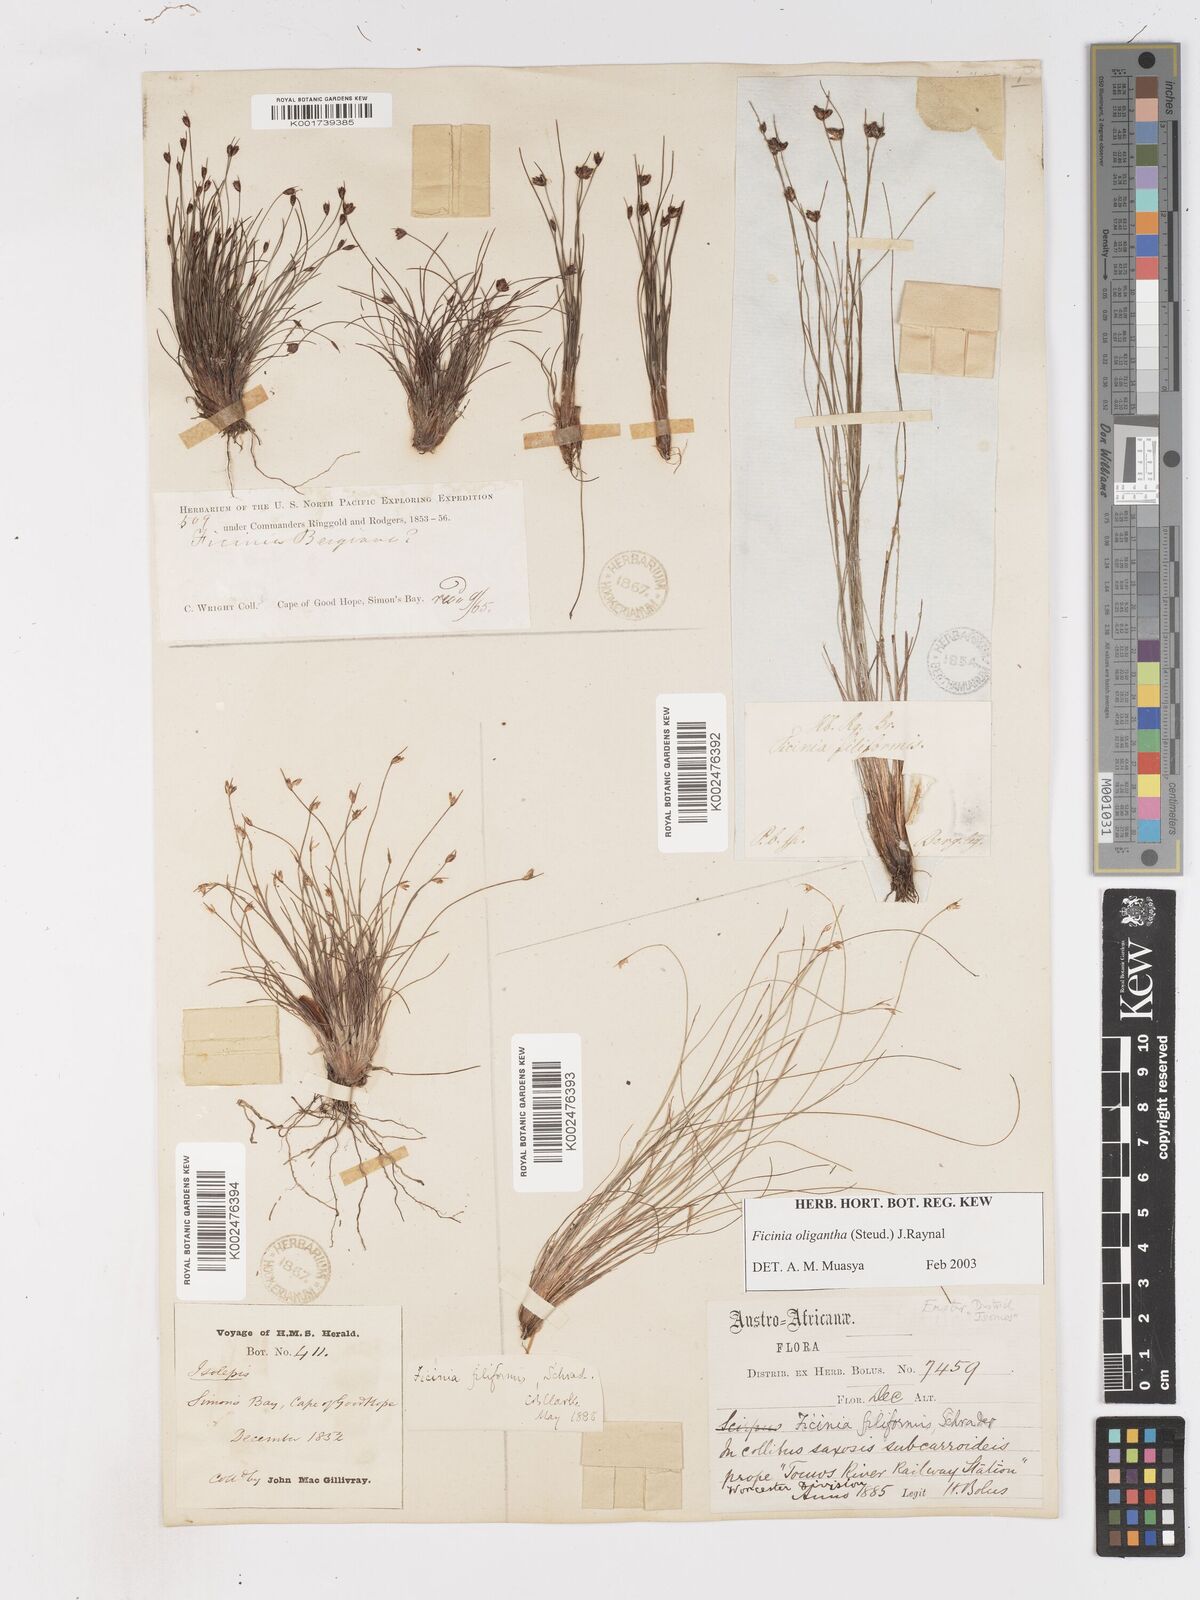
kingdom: Plantae
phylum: Tracheophyta
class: Liliopsida
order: Poales
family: Cyperaceae
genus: Ficinia
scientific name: Ficinia oligantha
